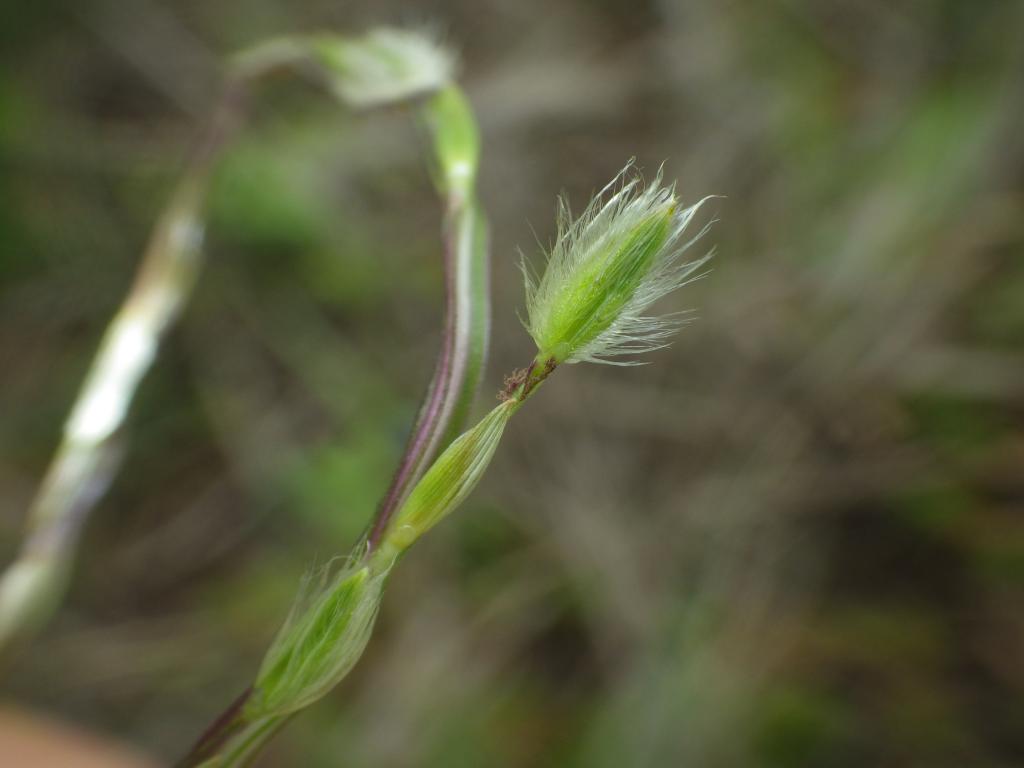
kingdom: Plantae
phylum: Tracheophyta
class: Liliopsida
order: Poales
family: Poaceae
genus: Digitaria
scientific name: Digitaria heterantha
